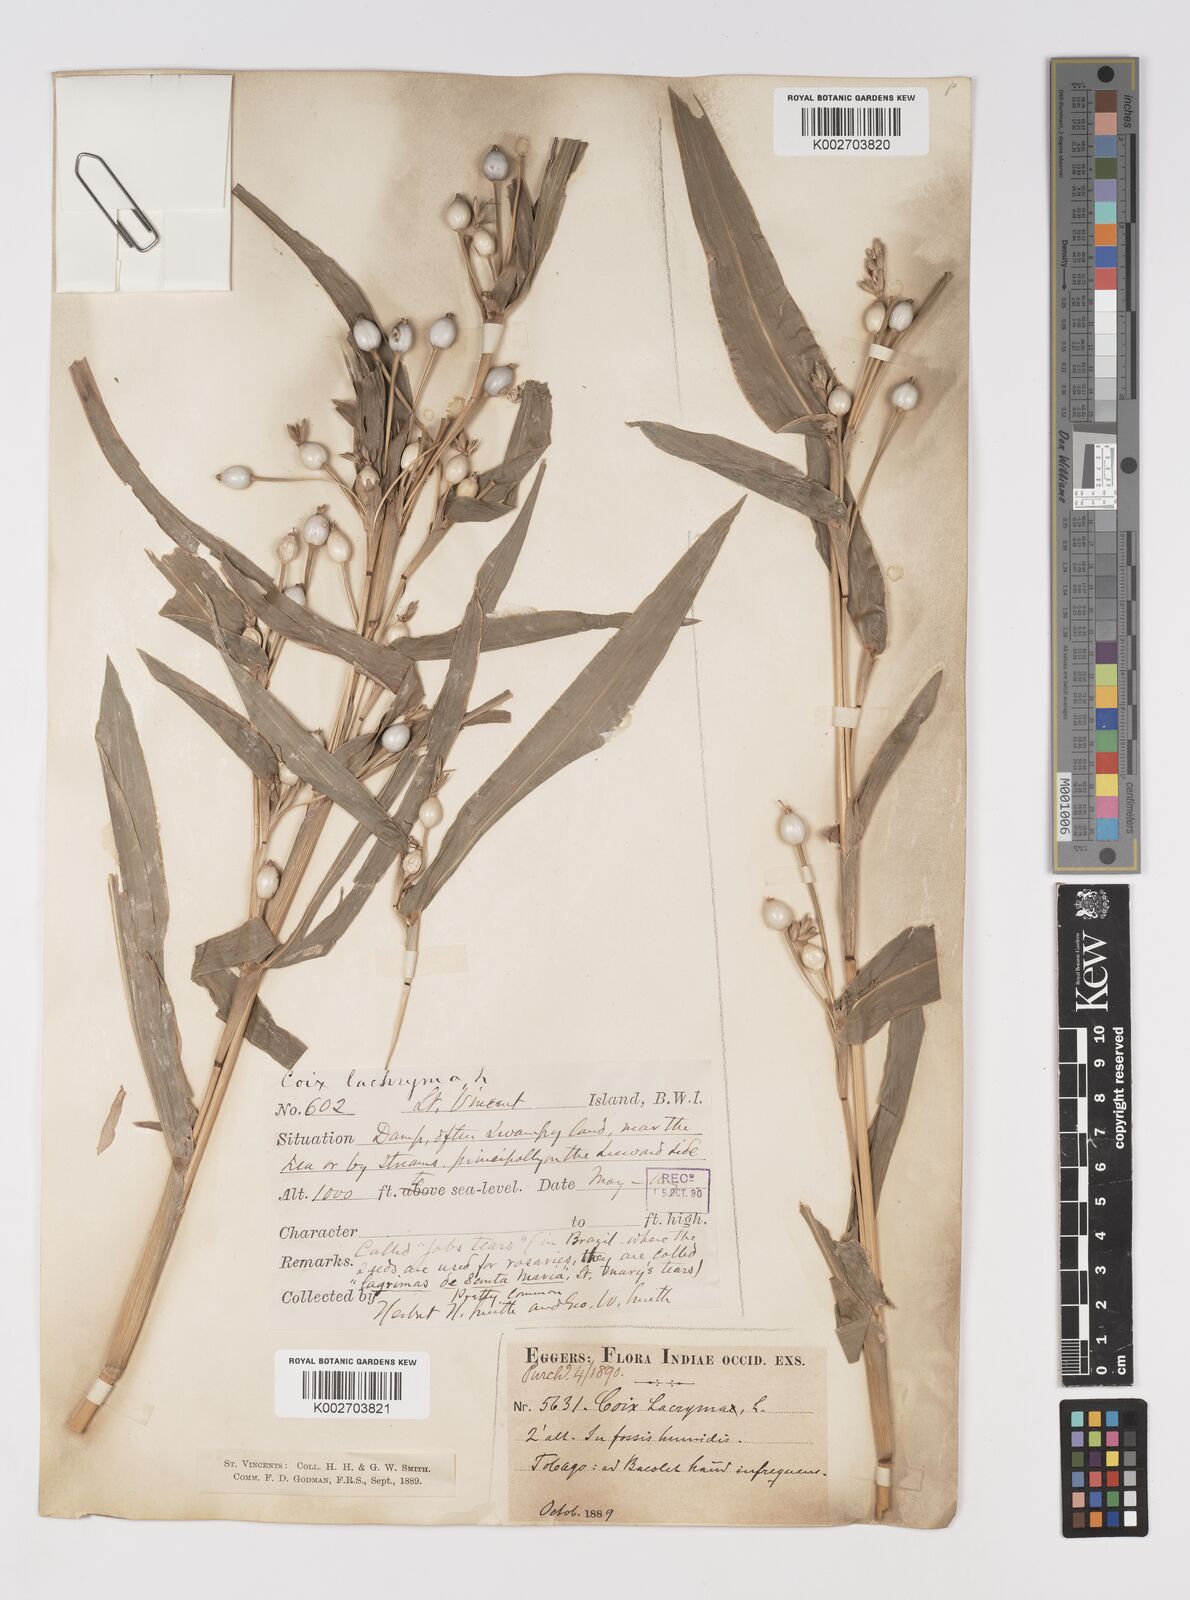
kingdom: Plantae
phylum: Tracheophyta
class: Liliopsida
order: Poales
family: Poaceae
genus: Coix
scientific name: Coix lacryma-jobi
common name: Job's tears
